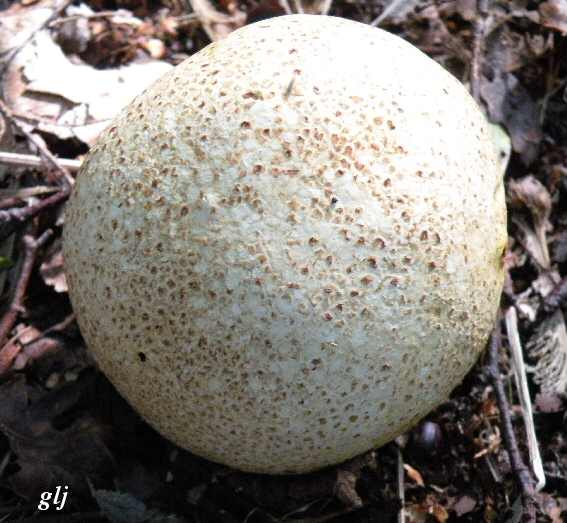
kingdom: Fungi
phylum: Basidiomycota
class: Agaricomycetes
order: Boletales
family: Sclerodermataceae
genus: Scleroderma
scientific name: Scleroderma citrinum
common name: almindelig bruskbold
